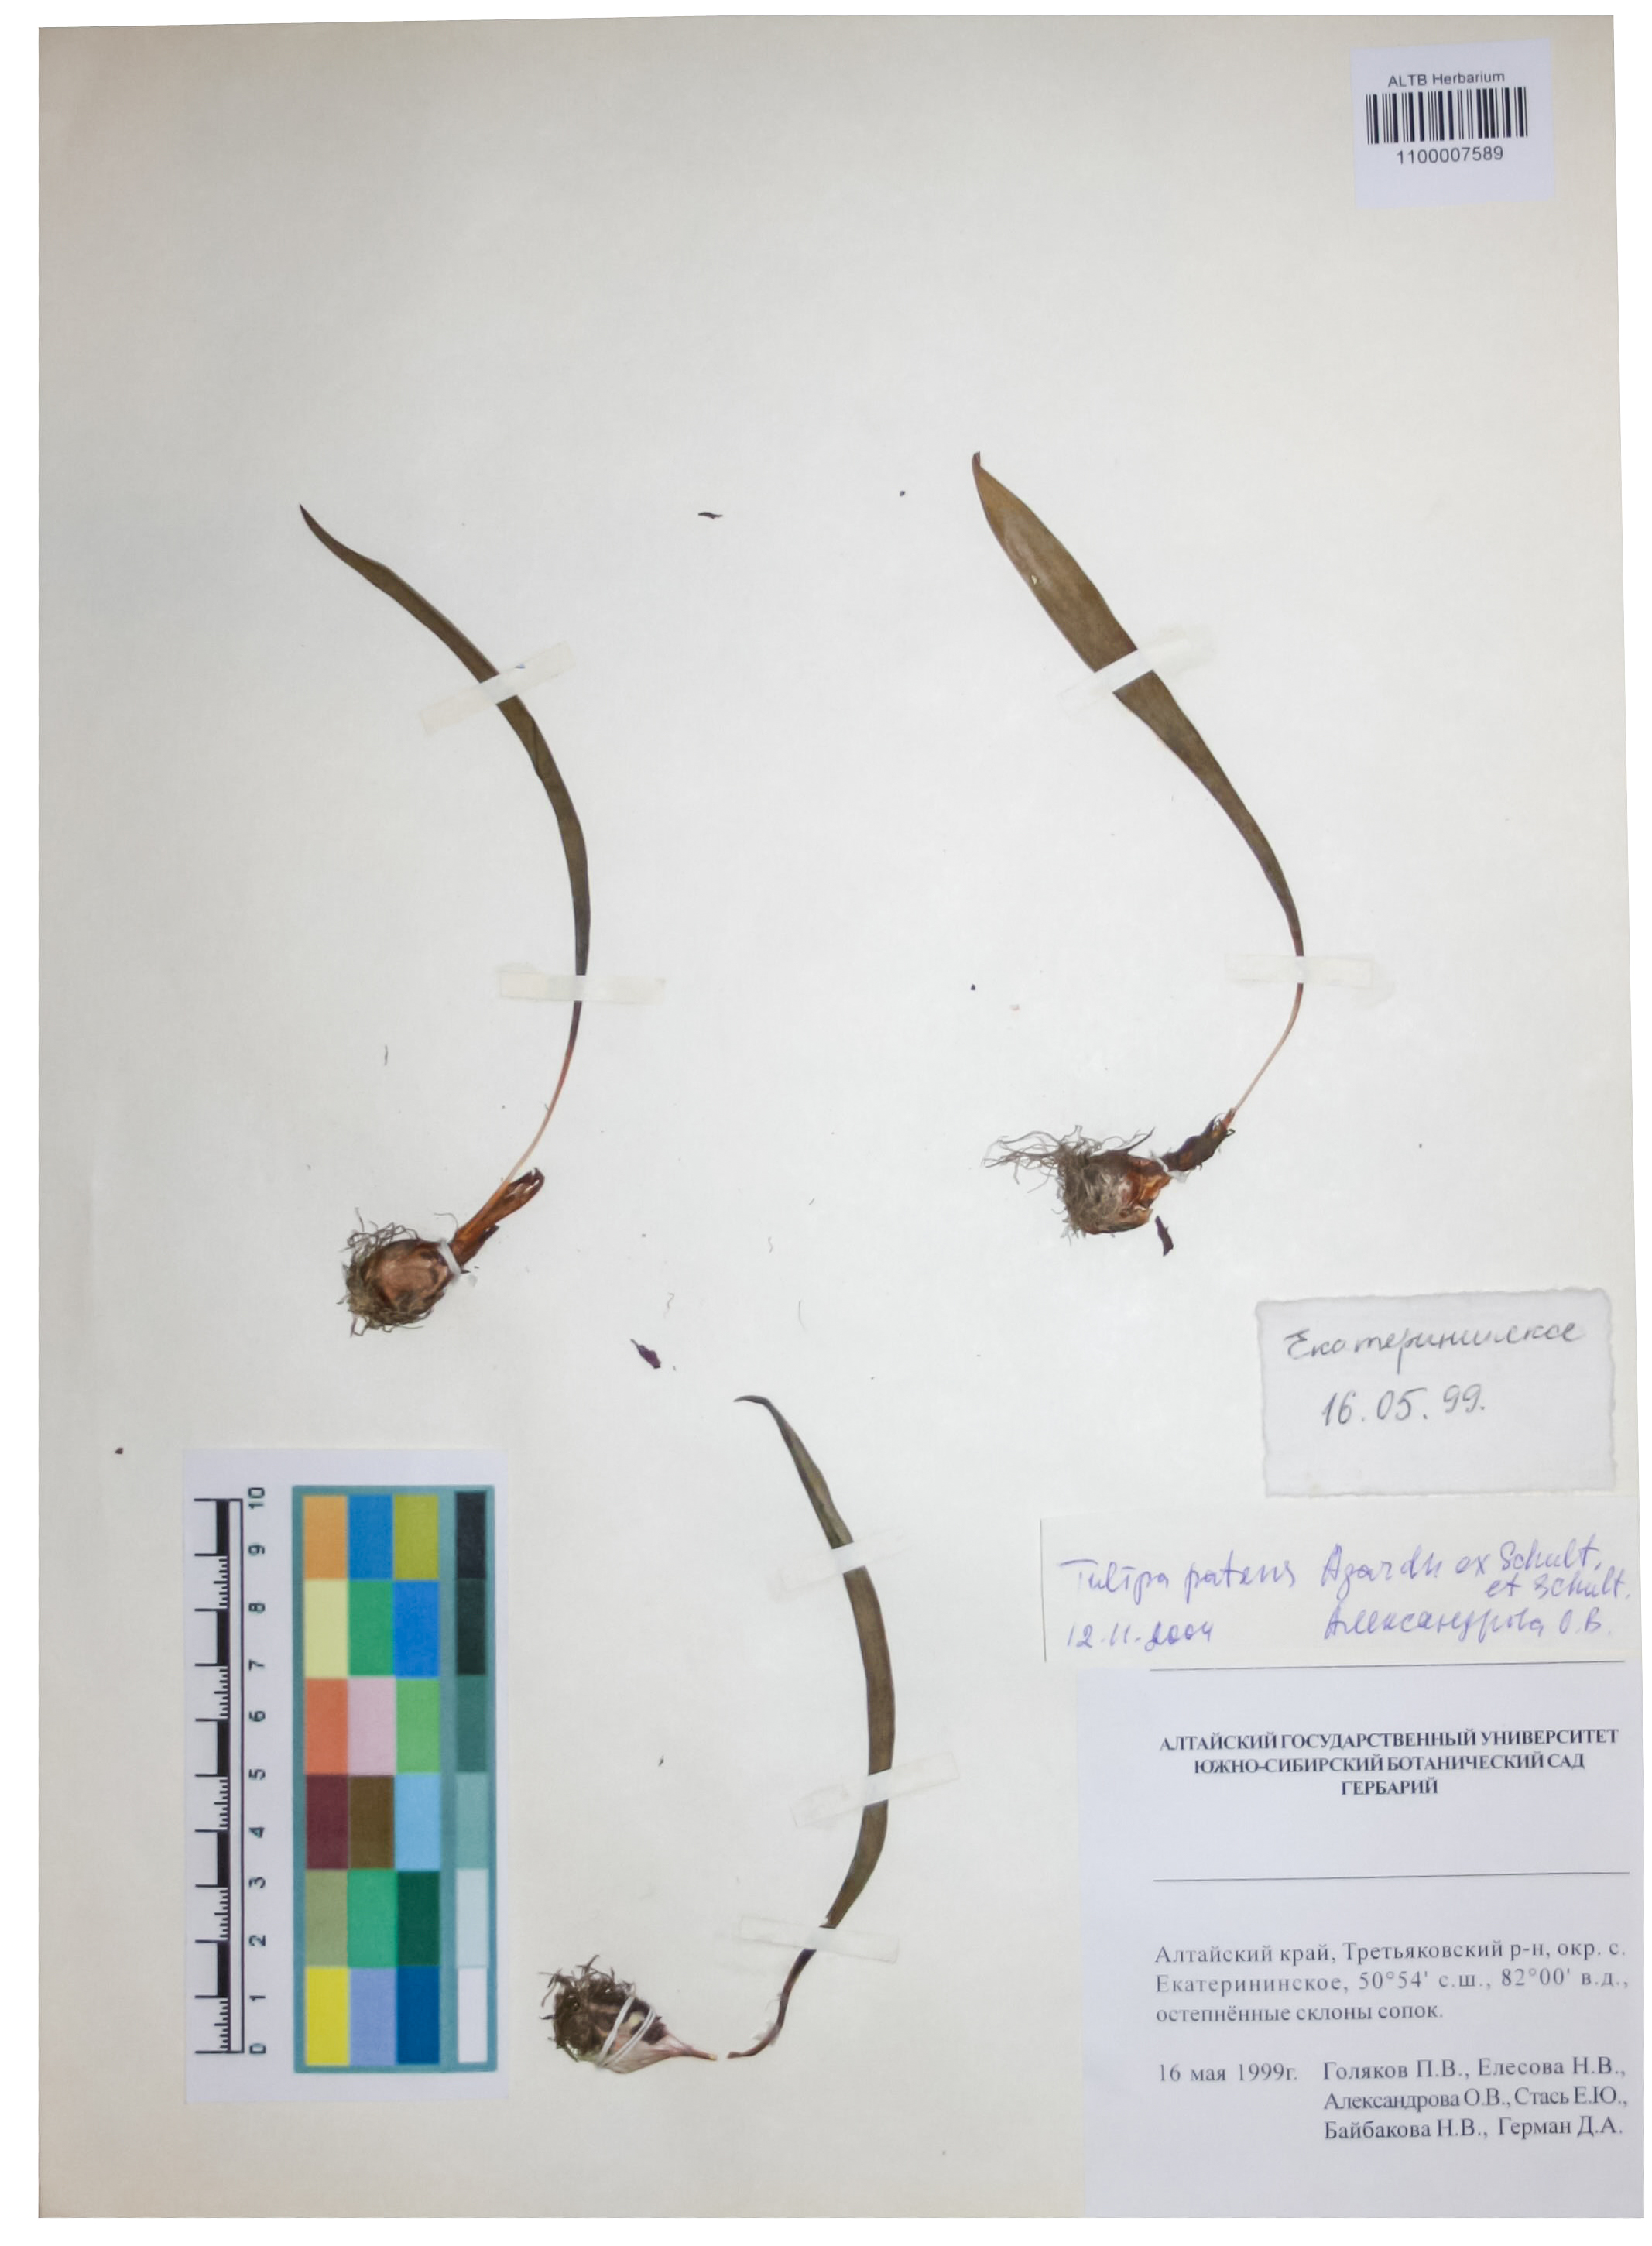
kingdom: Plantae
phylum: Tracheophyta
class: Liliopsida
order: Liliales
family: Liliaceae
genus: Tulipa
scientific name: Tulipa patens
